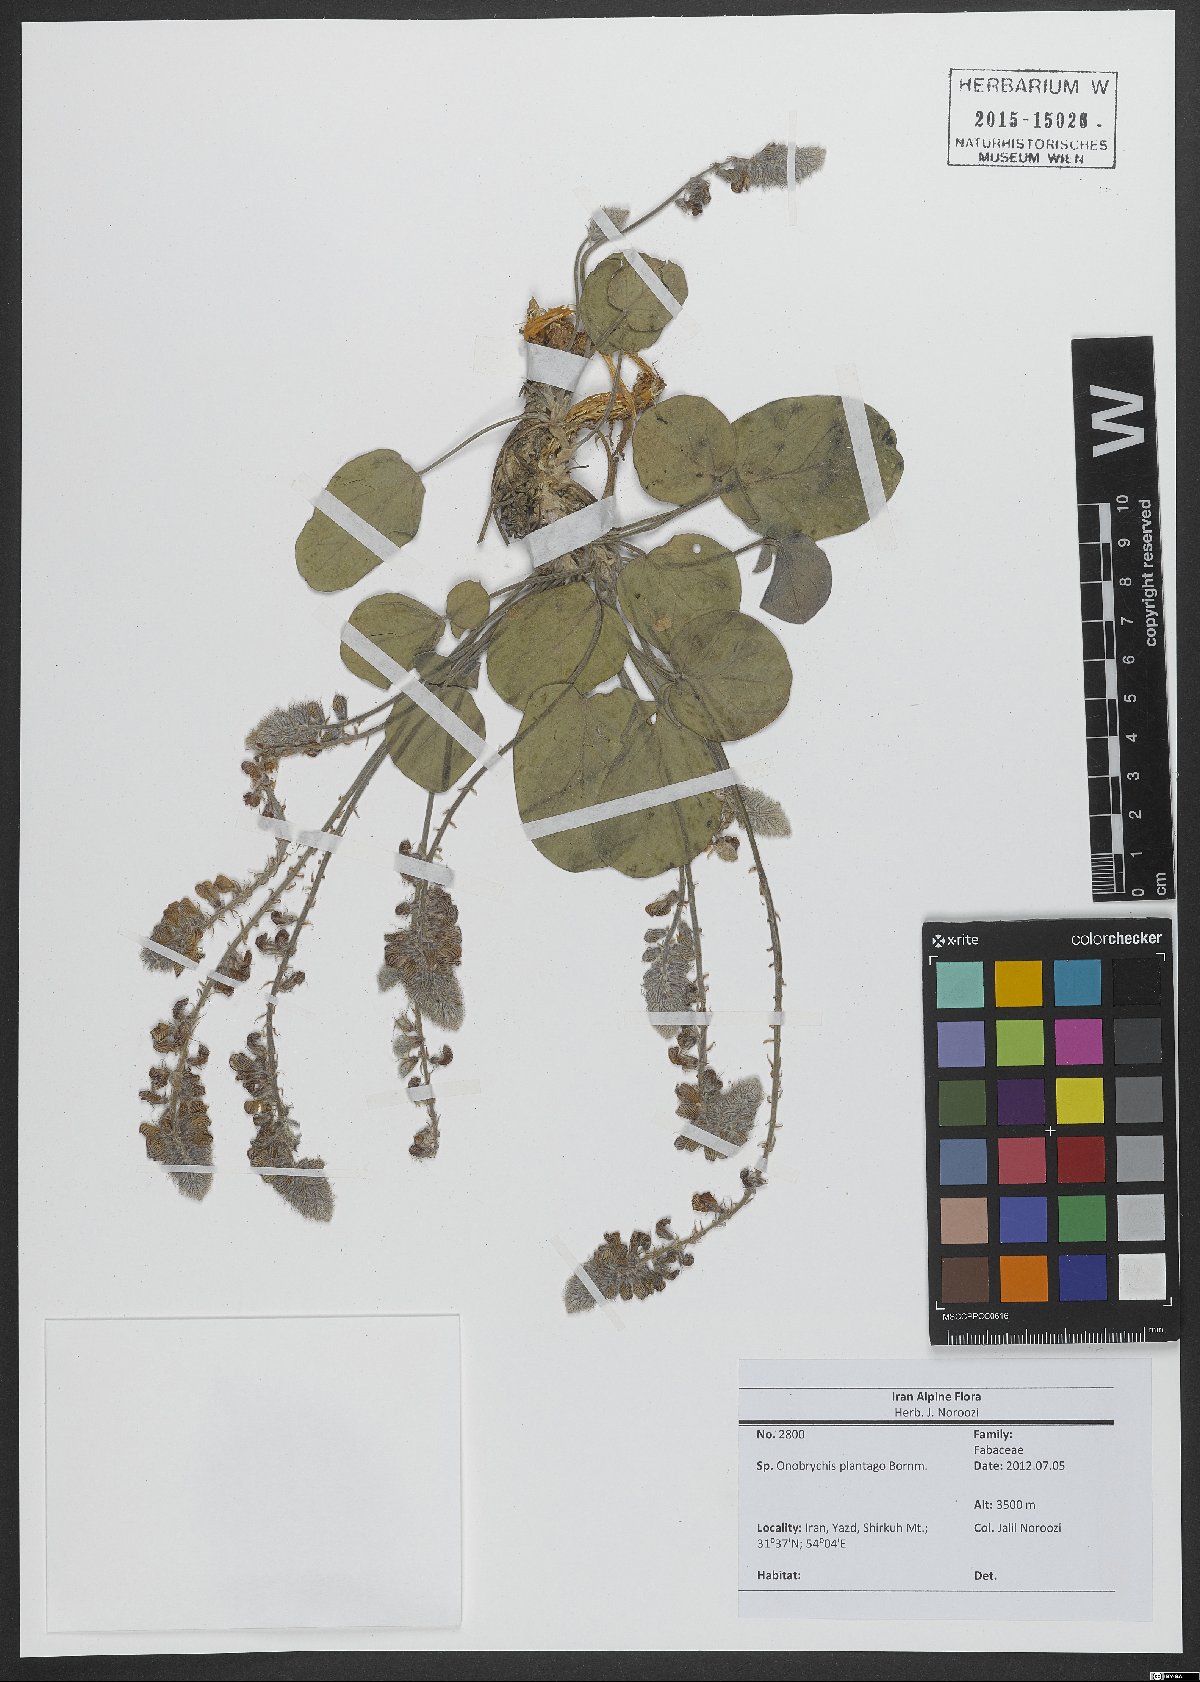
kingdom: Plantae
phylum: Tracheophyta
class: Magnoliopsida
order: Fabales
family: Fabaceae
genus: Onobrychis
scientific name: Onobrychis plantago
